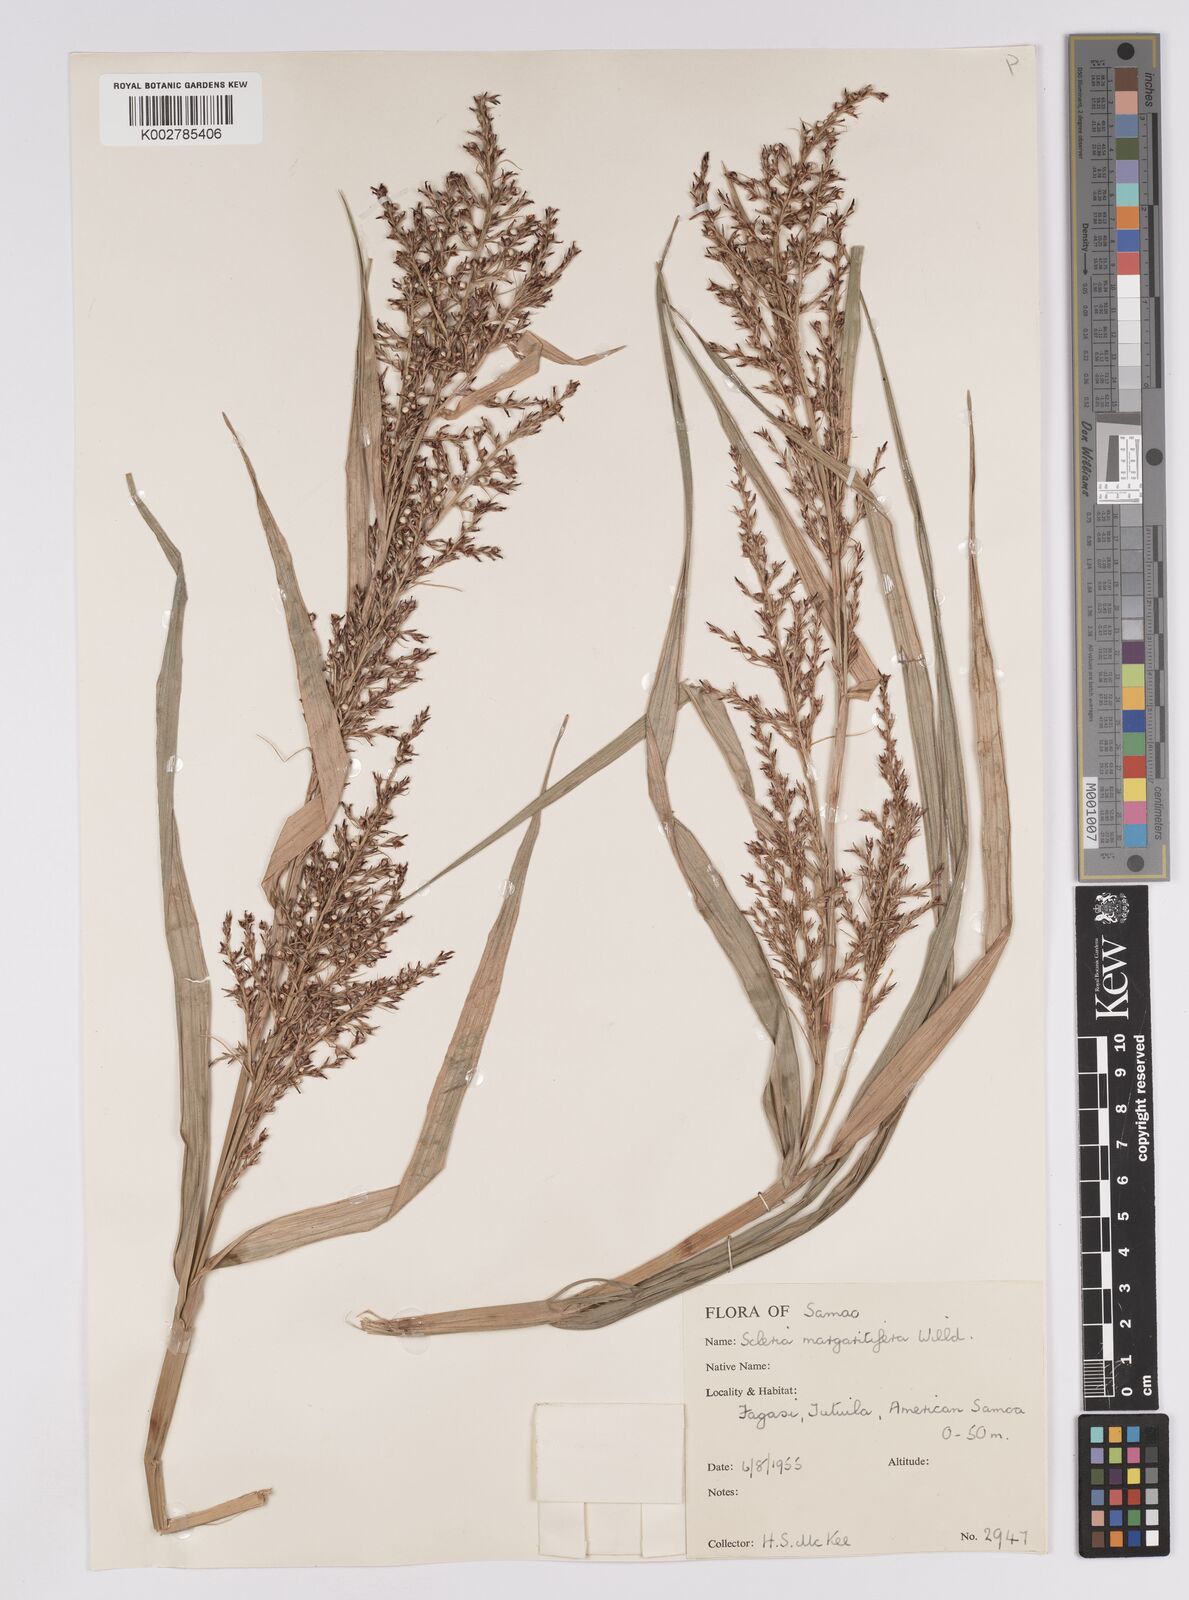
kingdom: Plantae
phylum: Tracheophyta
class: Liliopsida
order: Poales
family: Cyperaceae
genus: Scleria
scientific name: Scleria polycarpa
